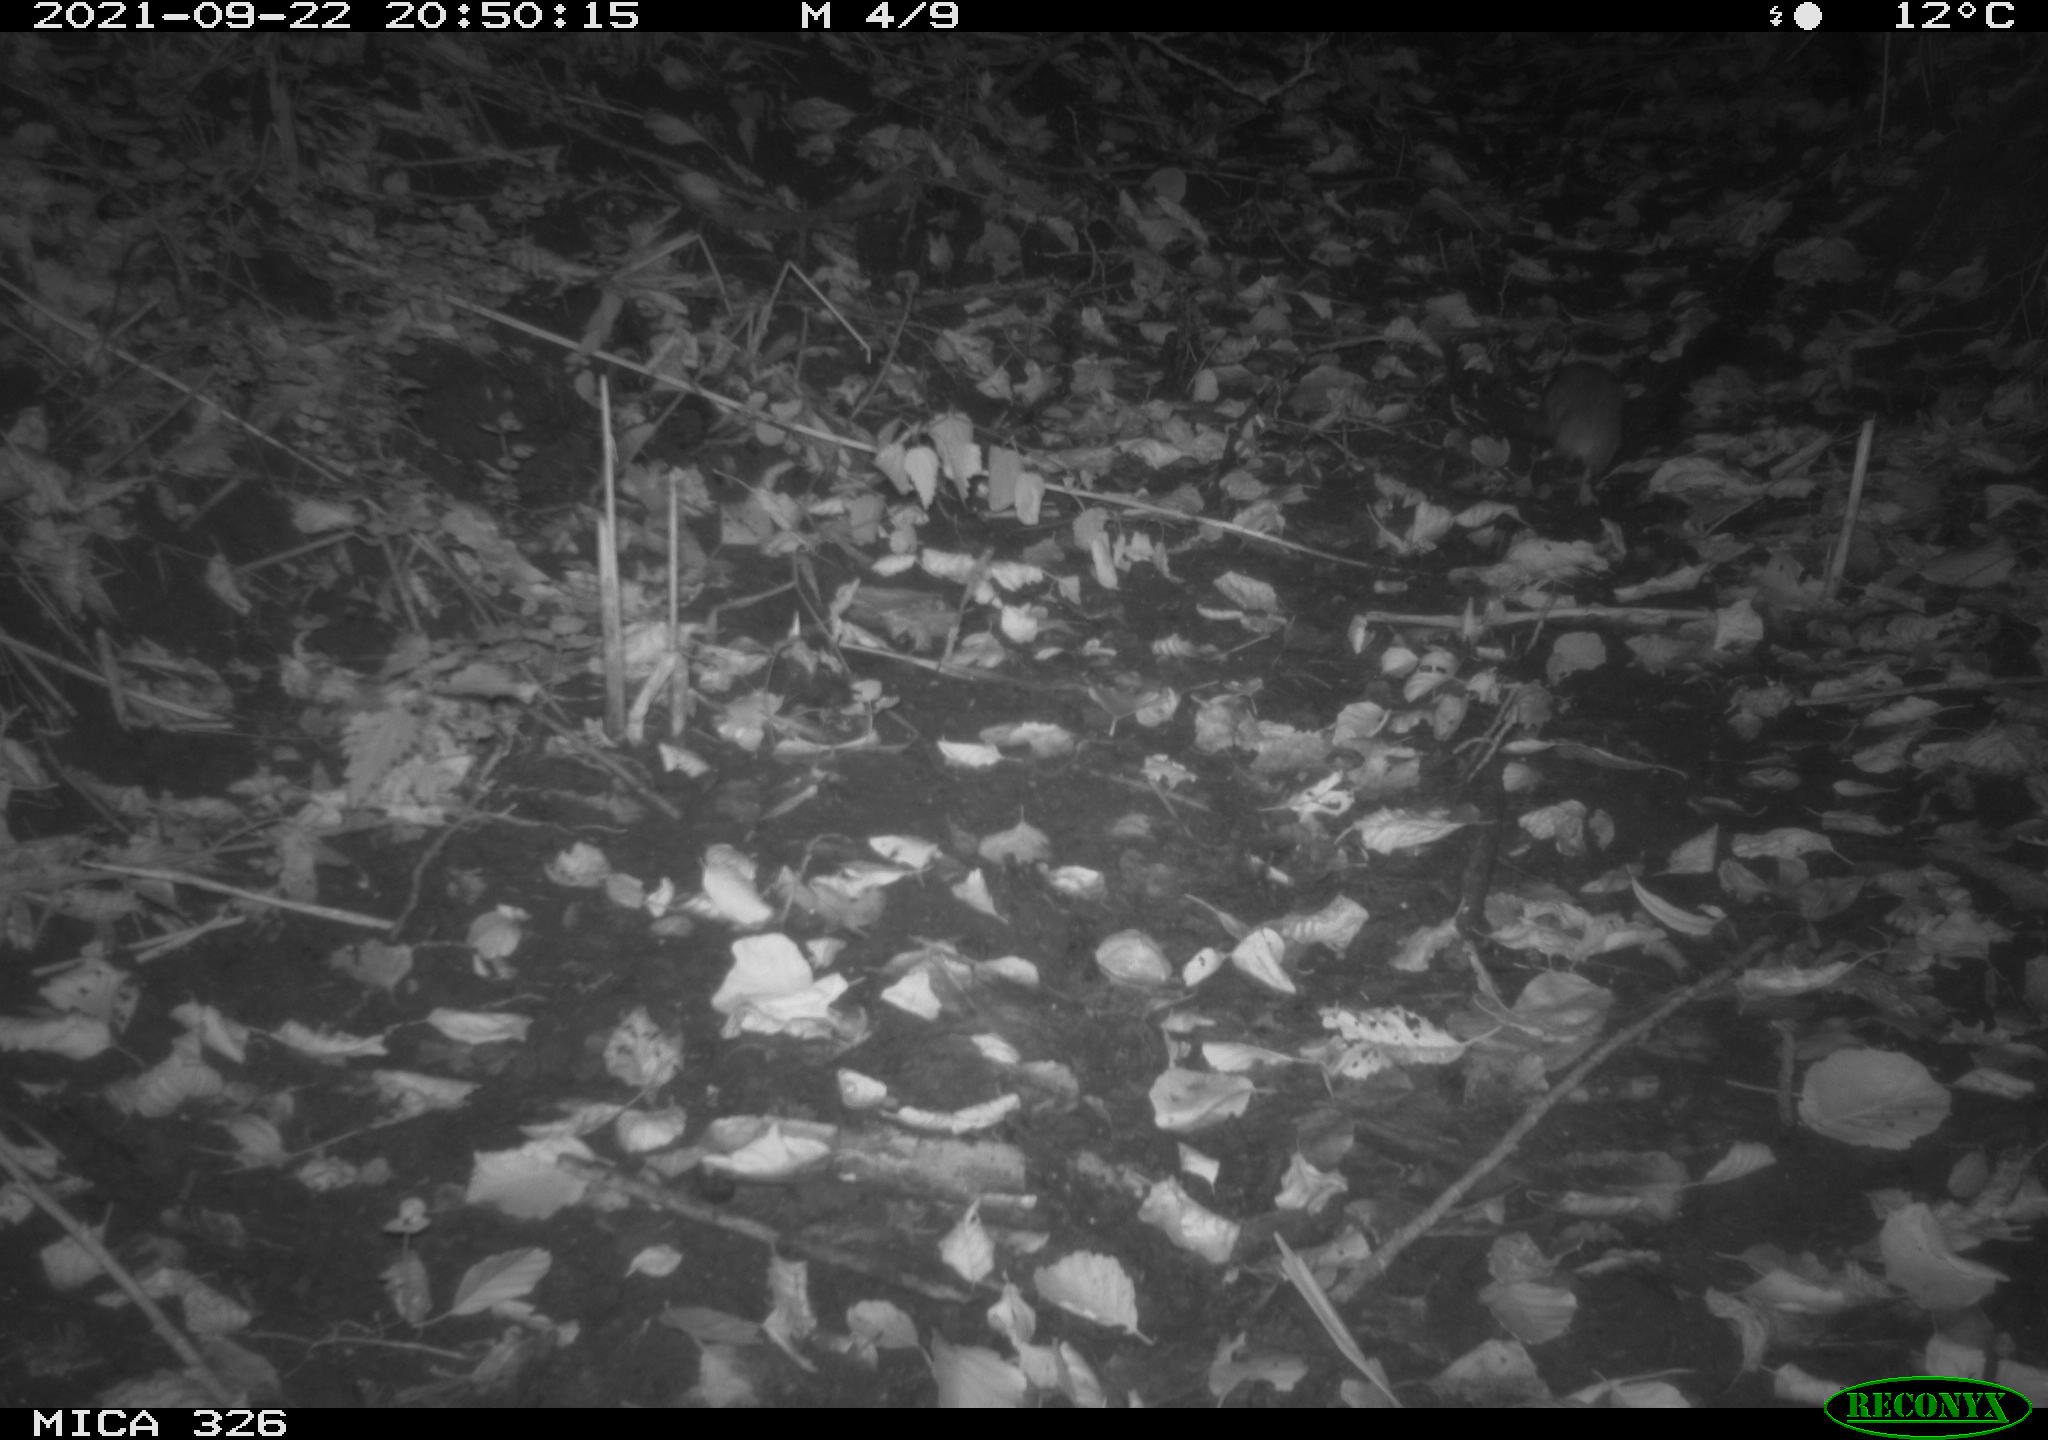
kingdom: Animalia
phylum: Chordata
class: Mammalia
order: Rodentia
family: Muridae
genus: Rattus
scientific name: Rattus norvegicus
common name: Brown rat
